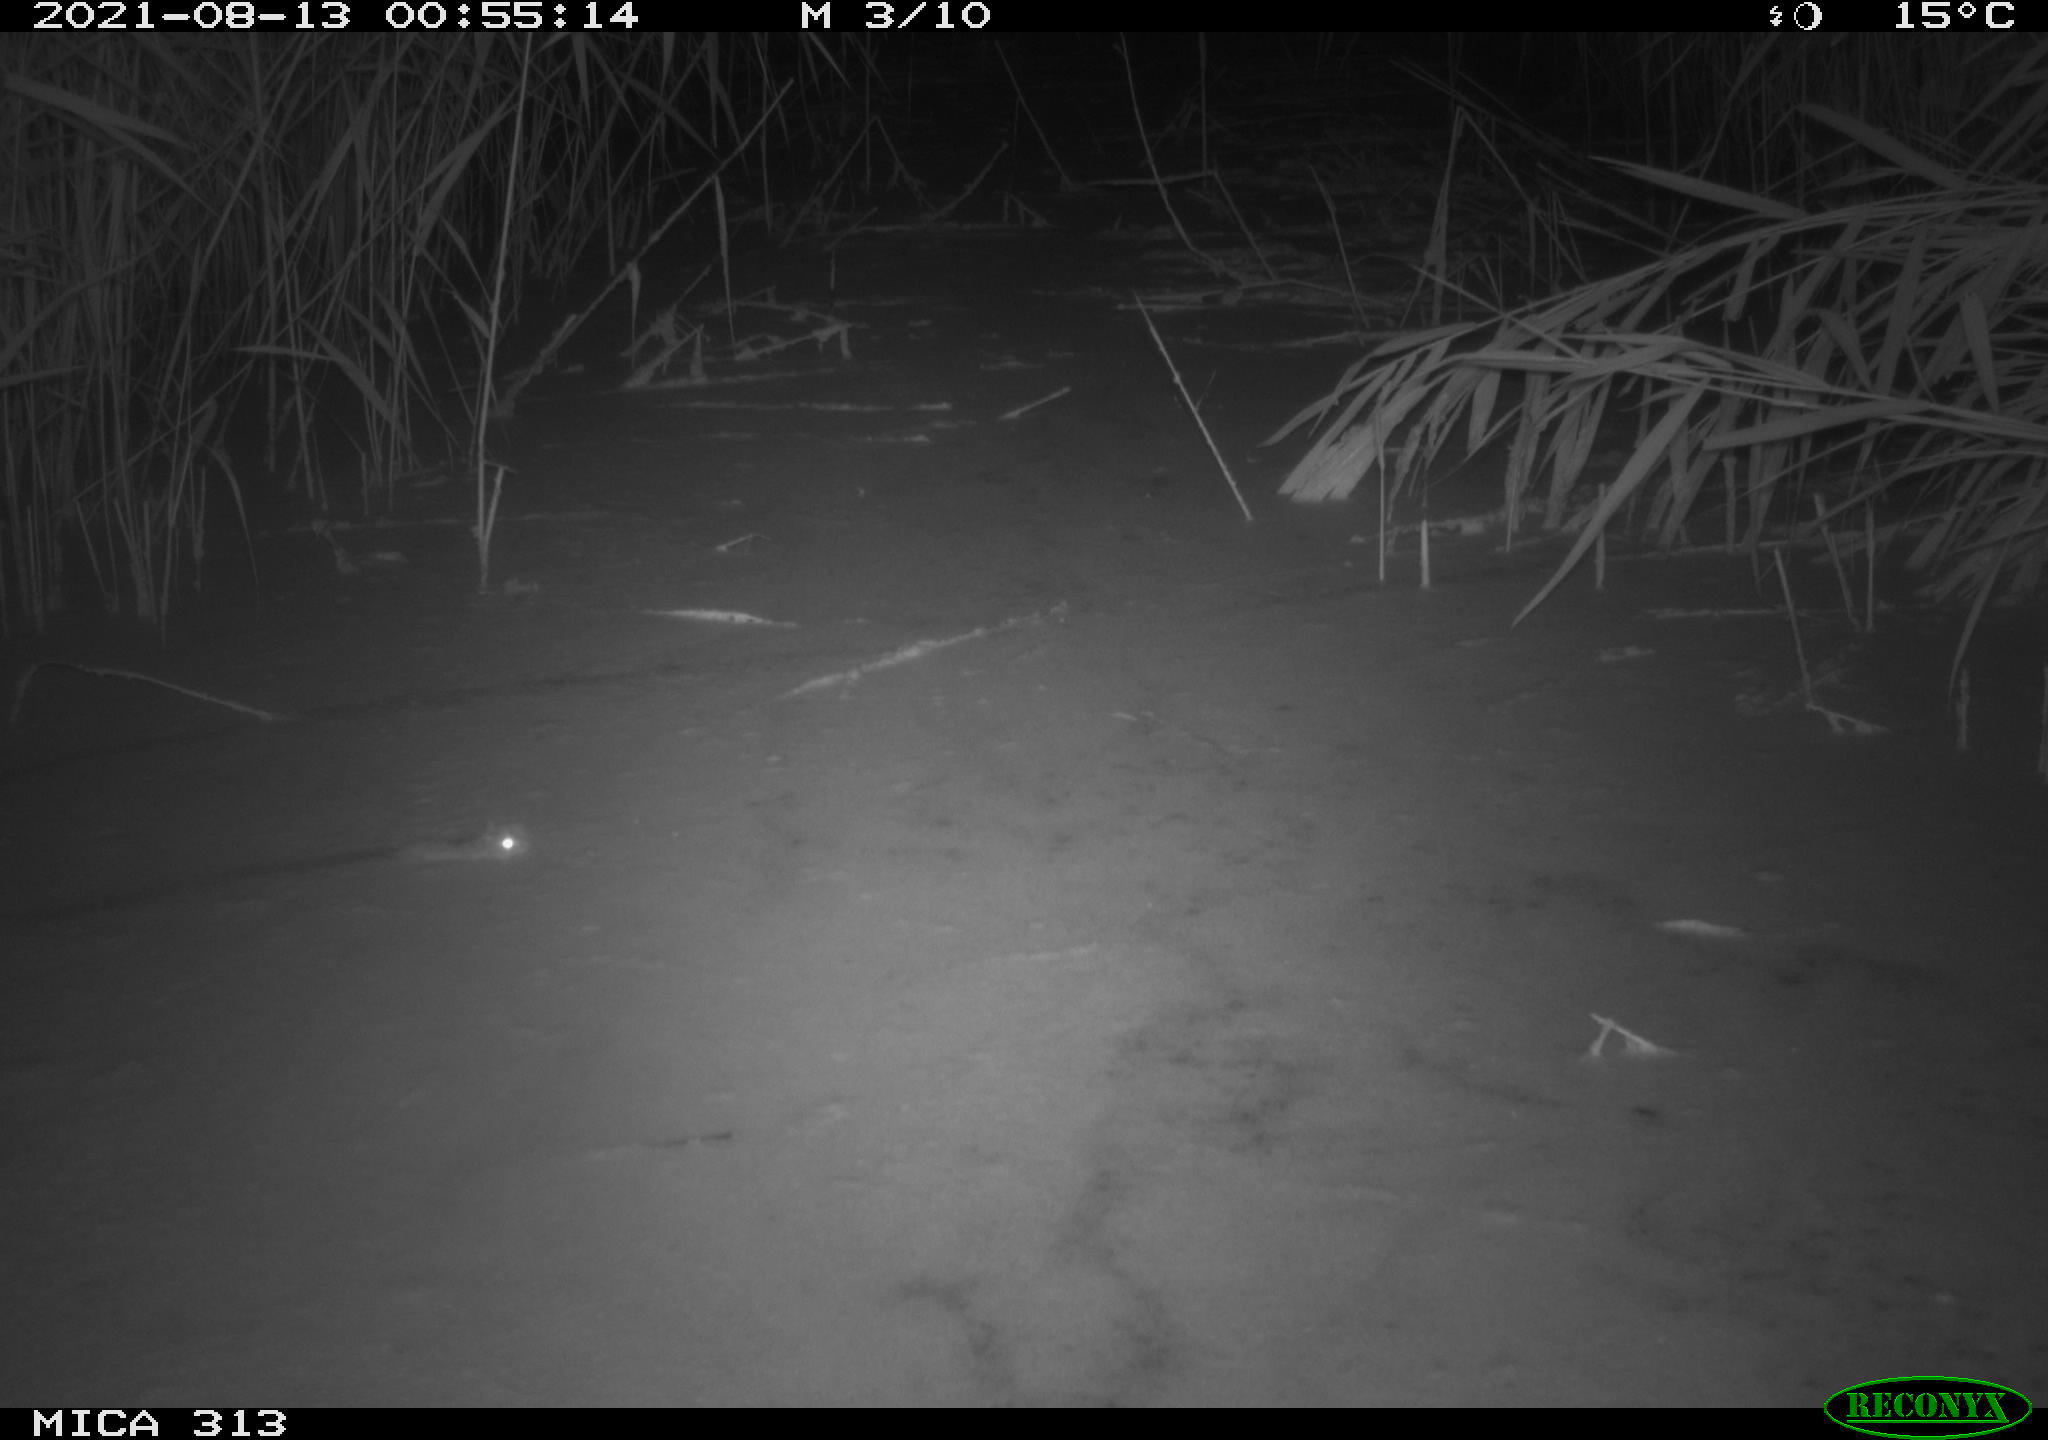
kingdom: Animalia
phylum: Chordata
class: Mammalia
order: Rodentia
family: Muridae
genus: Rattus
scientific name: Rattus norvegicus
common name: Brown rat
